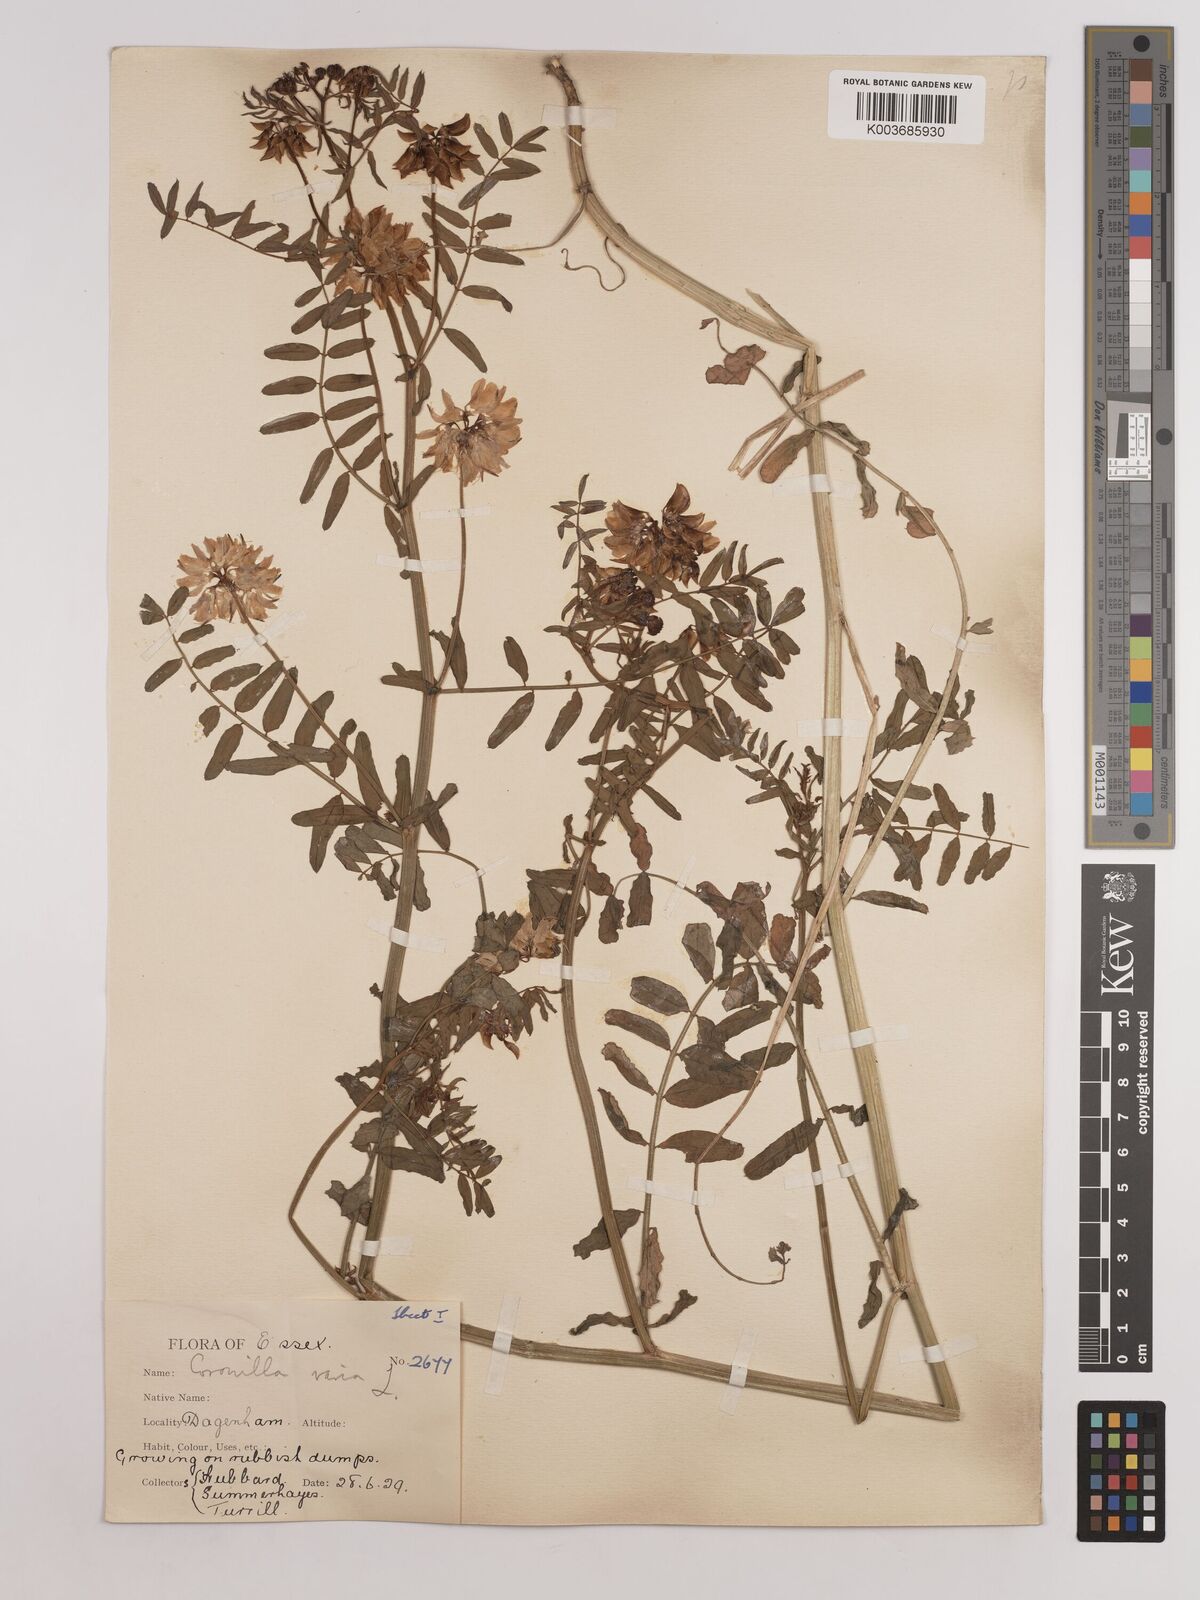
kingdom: Plantae
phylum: Tracheophyta
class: Magnoliopsida
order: Fabales
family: Fabaceae
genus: Coronilla
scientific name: Coronilla varia
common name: Crownvetch
